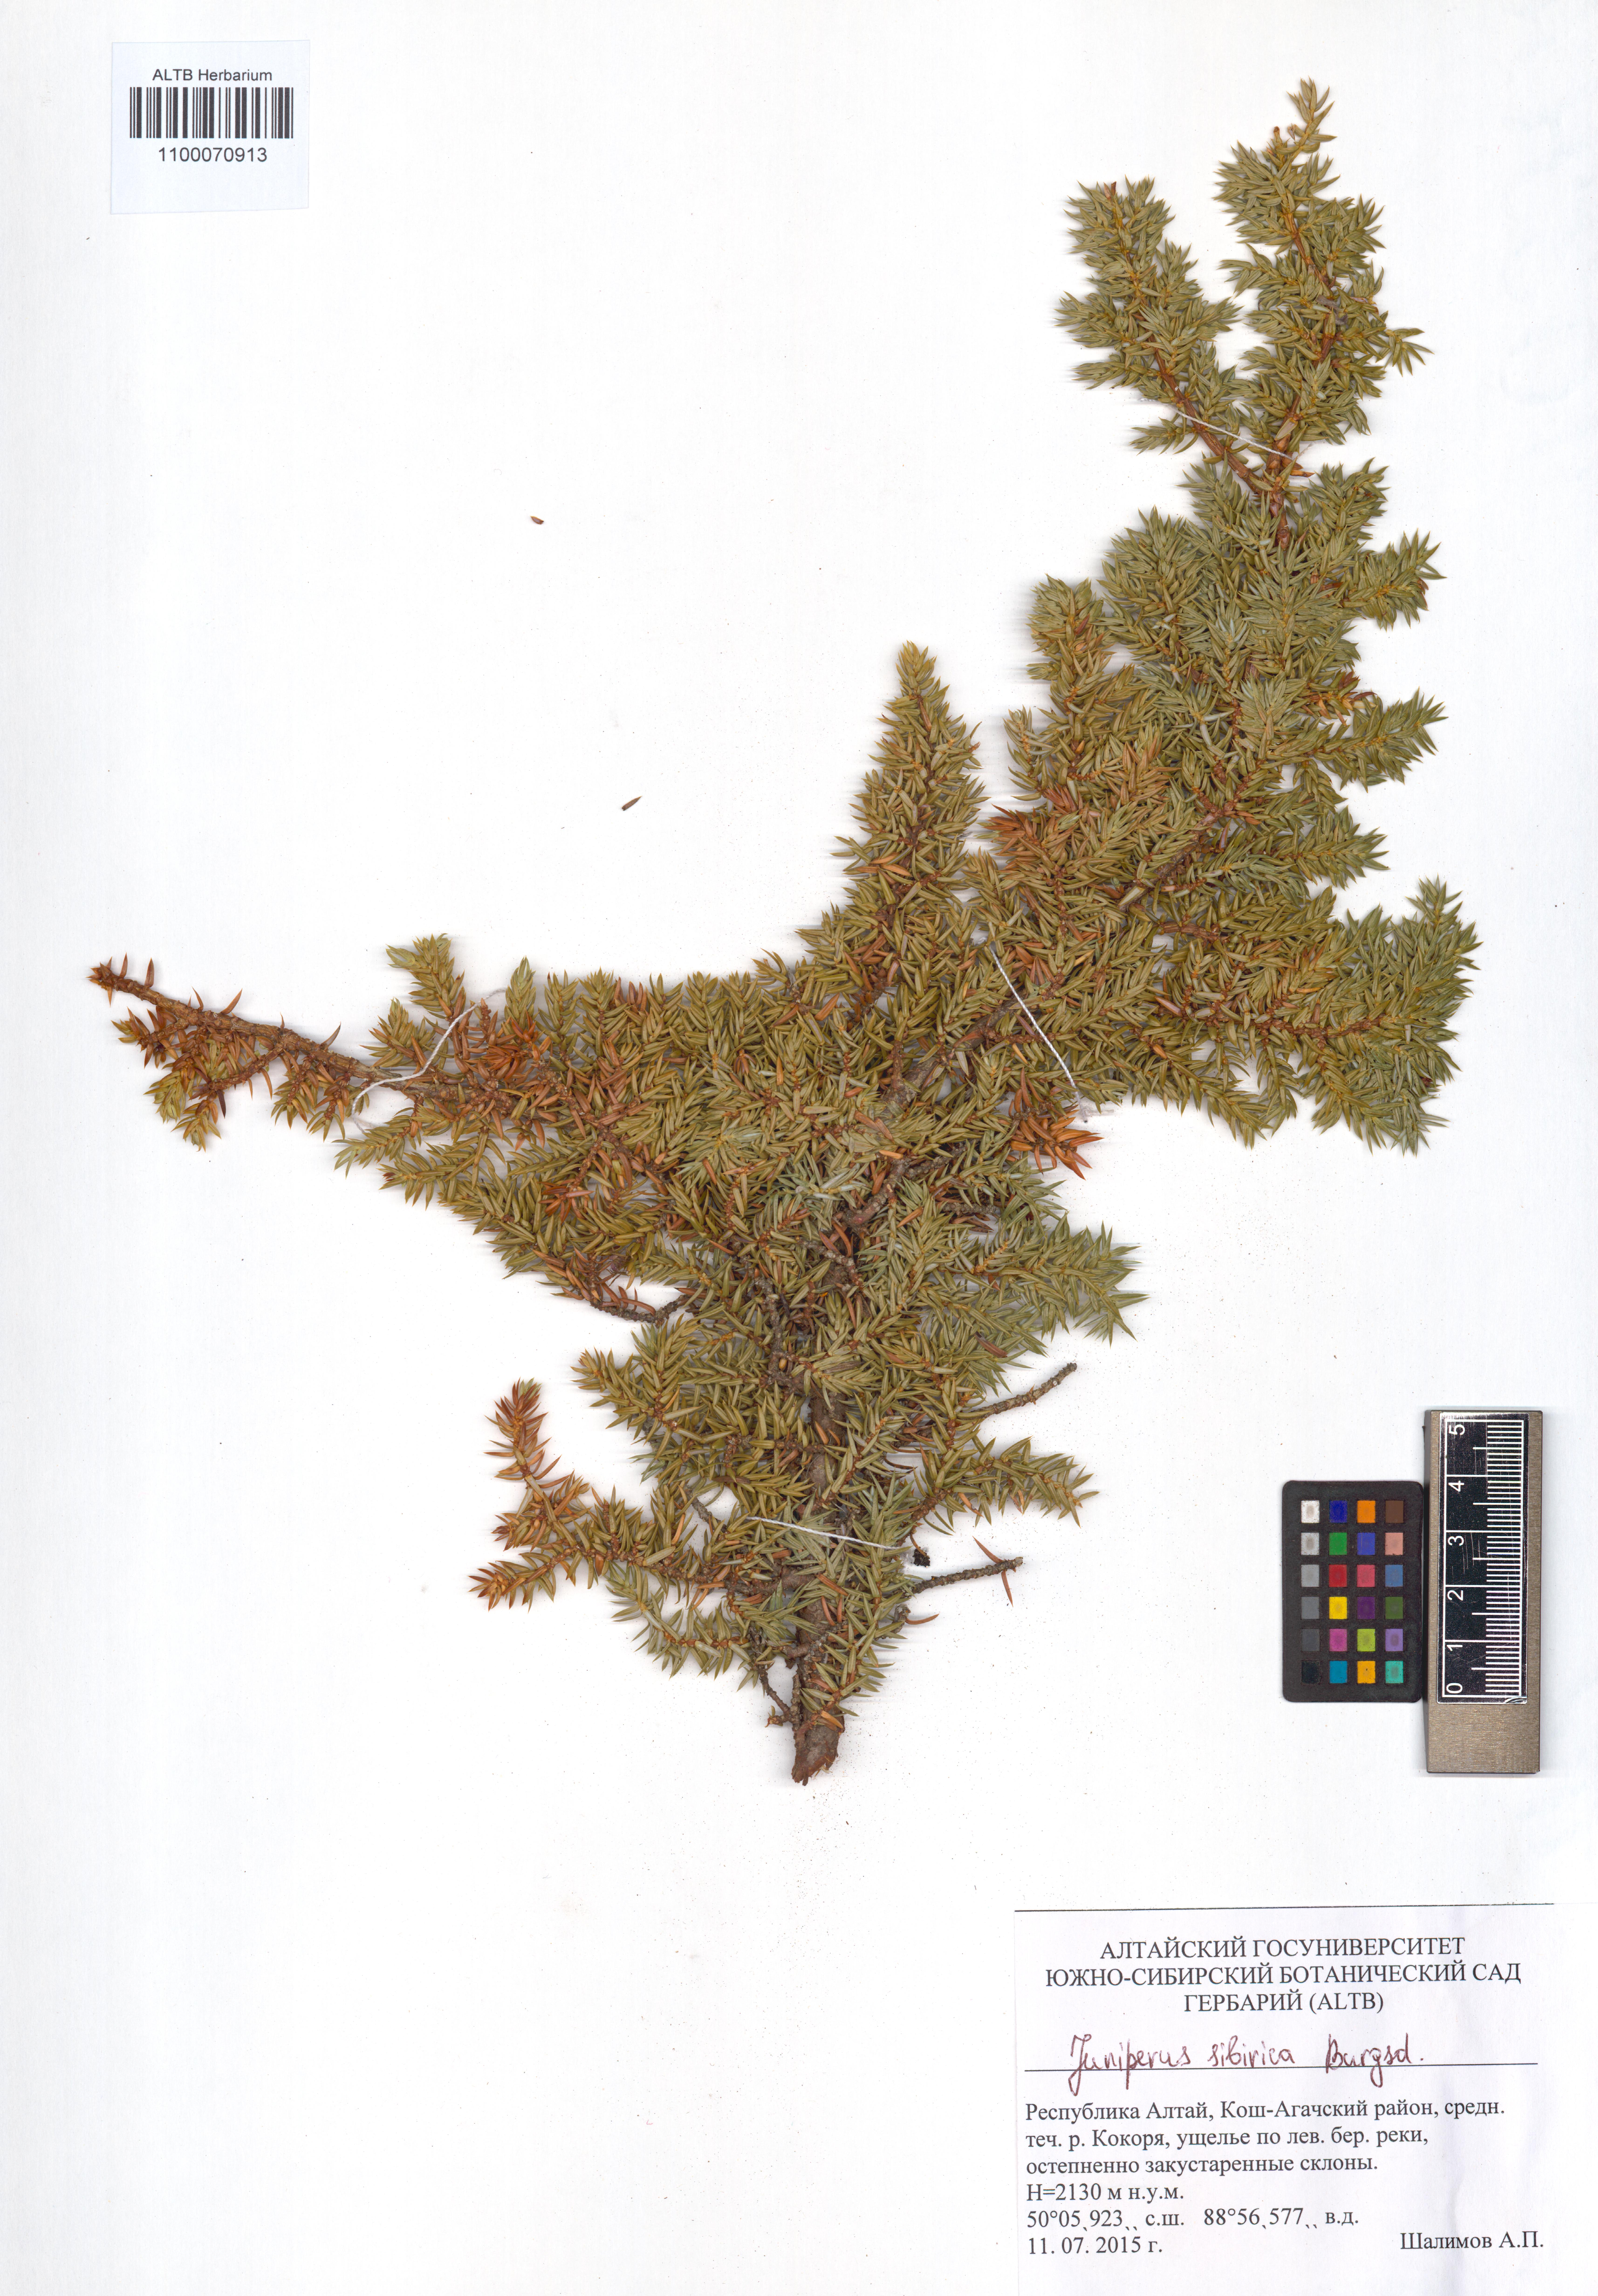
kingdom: Plantae
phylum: Tracheophyta
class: Pinopsida
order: Pinales
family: Cupressaceae
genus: Juniperus
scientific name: Juniperus communis
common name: Common juniper
